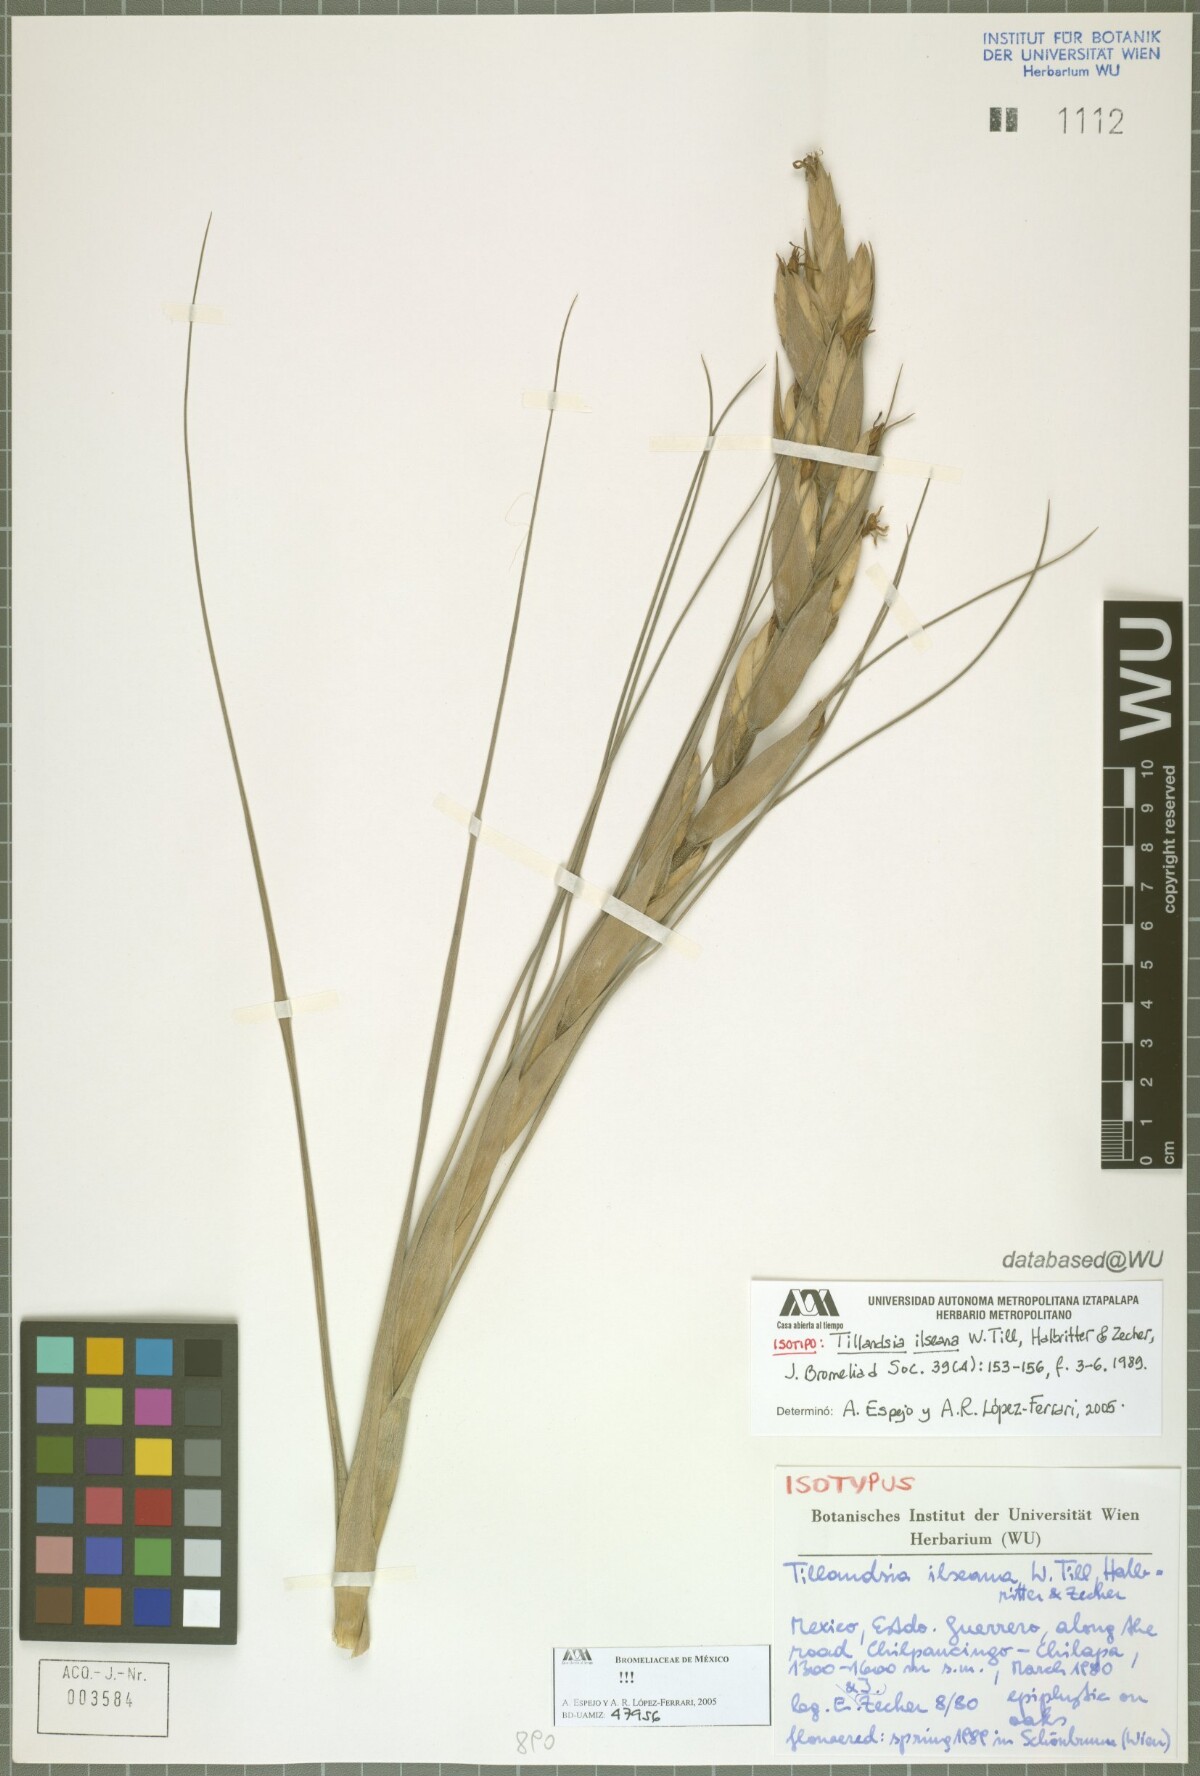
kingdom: Plantae
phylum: Tracheophyta
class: Liliopsida
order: Poales
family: Bromeliaceae
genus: Tillandsia
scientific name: Tillandsia ilseana
